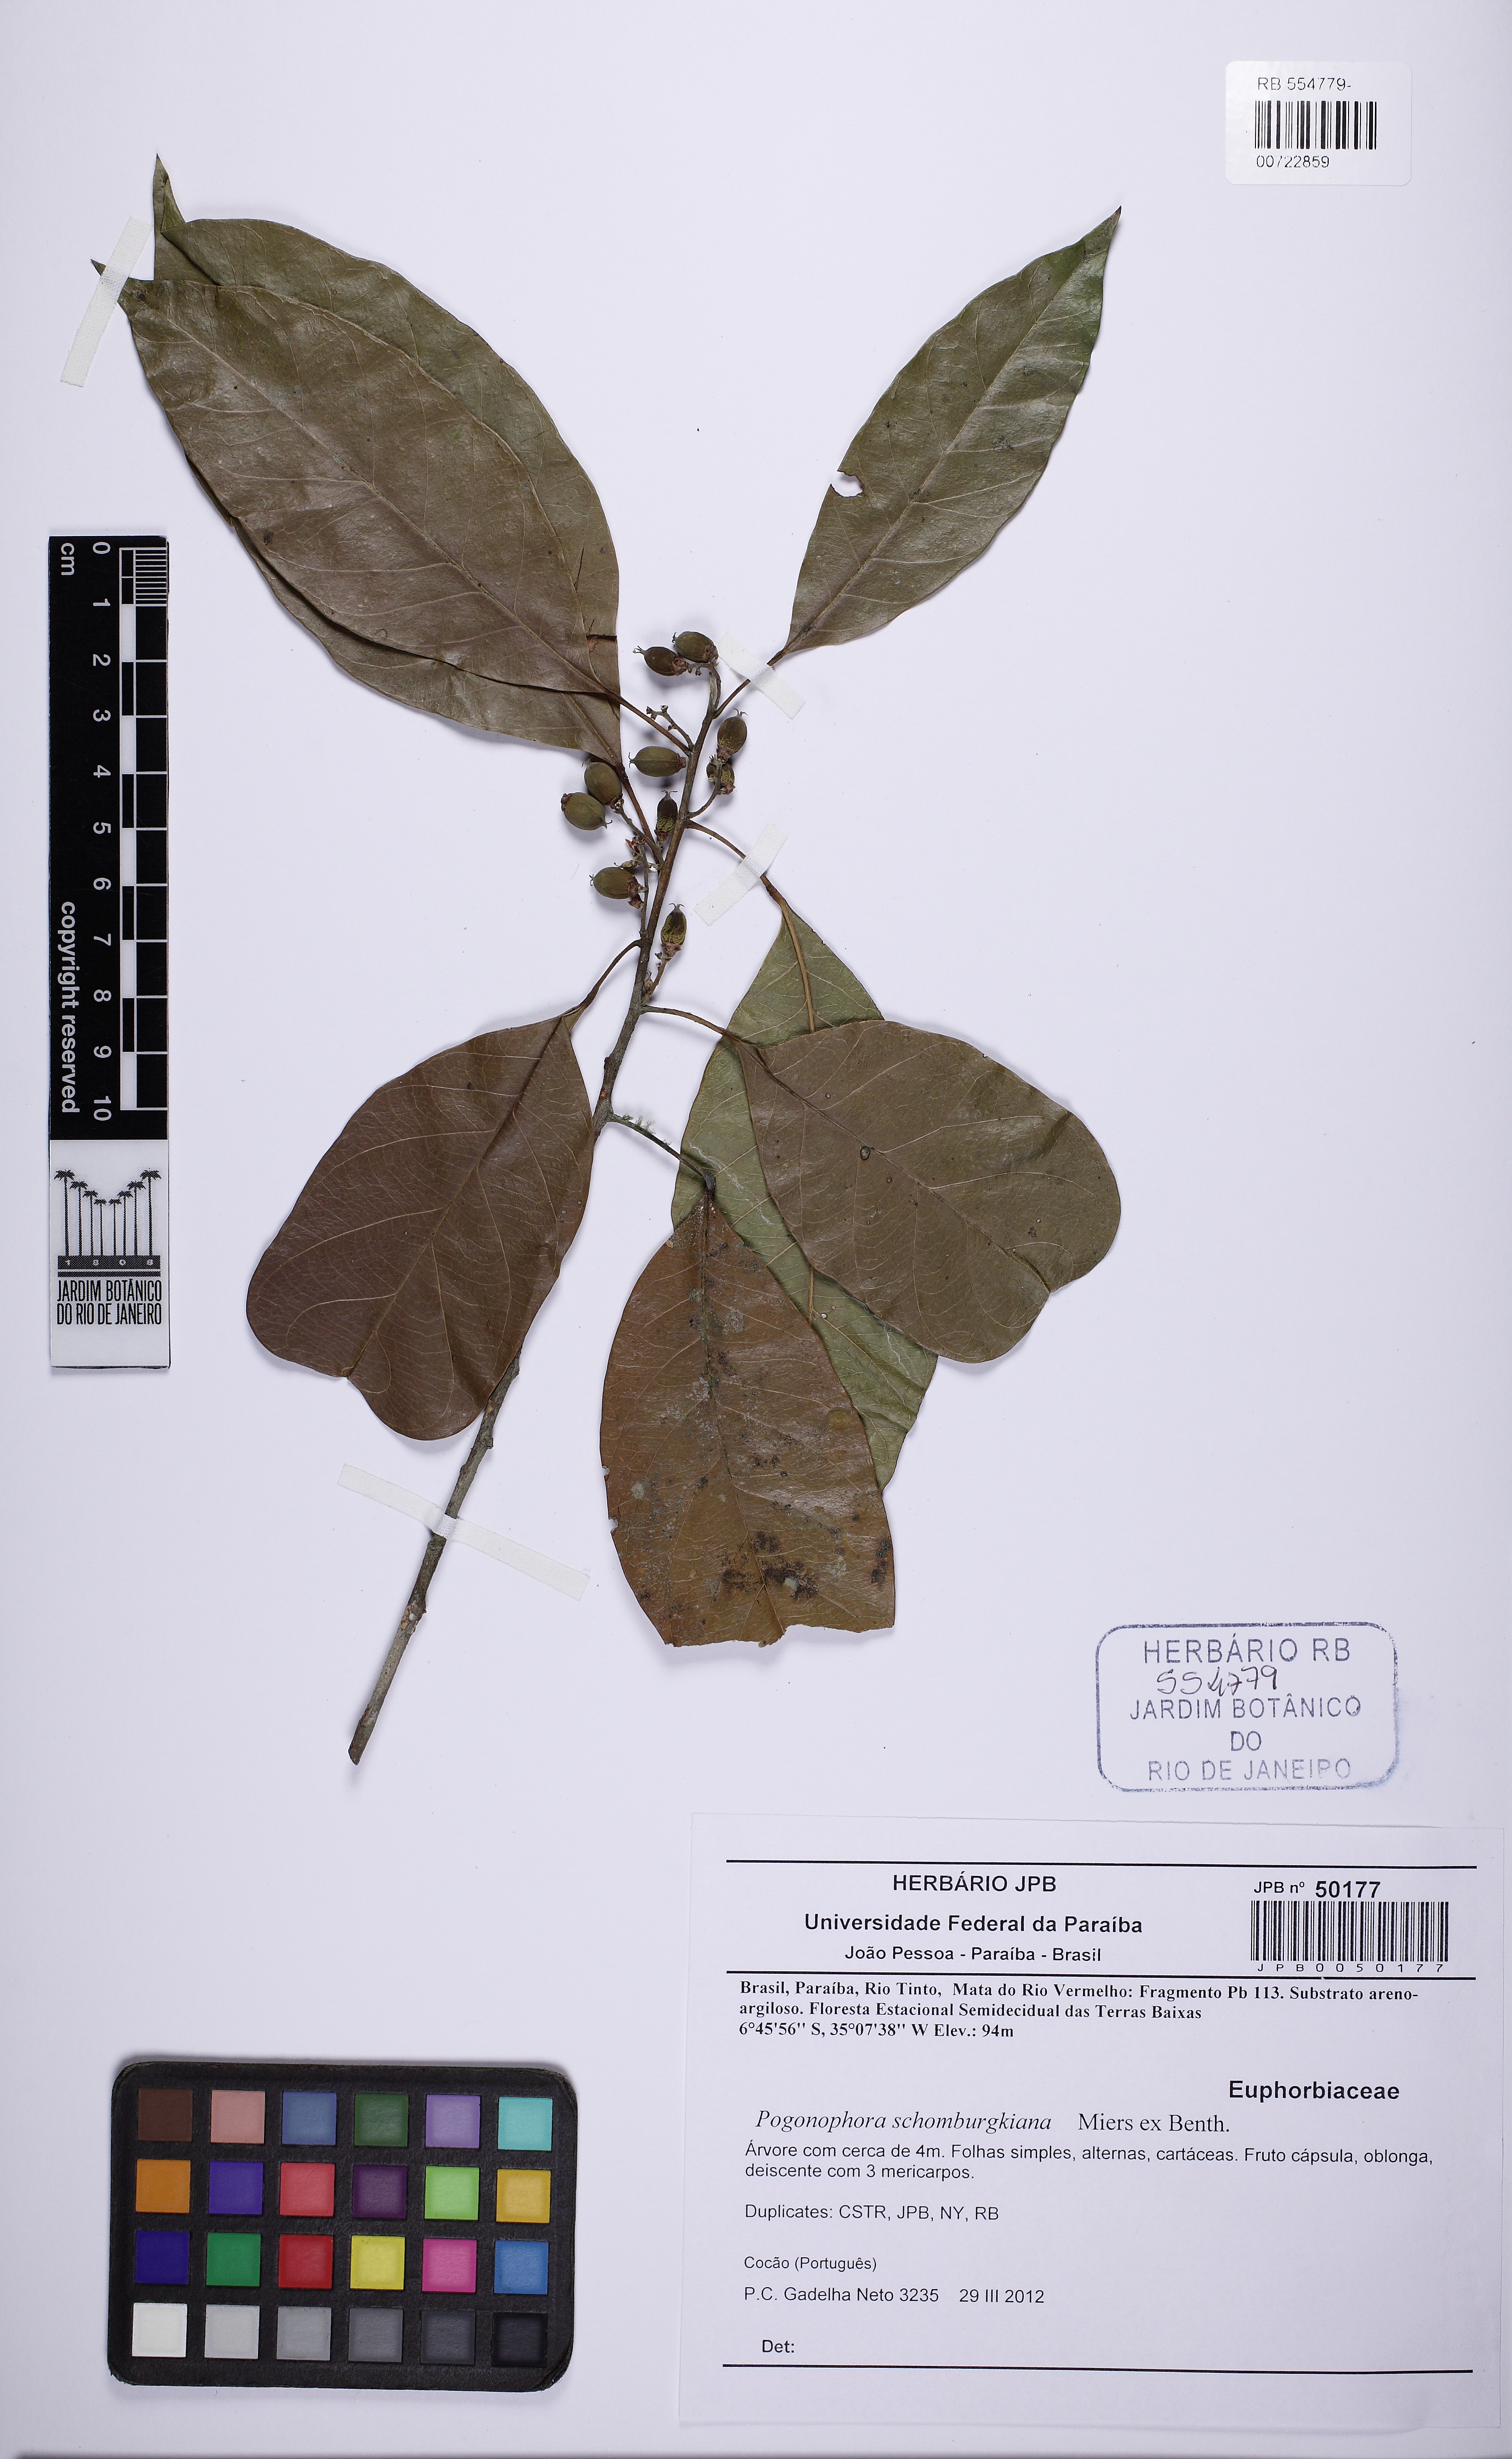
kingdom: Plantae
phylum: Tracheophyta
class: Magnoliopsida
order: Malpighiales
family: Peraceae
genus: Pogonophora
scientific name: Pogonophora schomburgkiana
